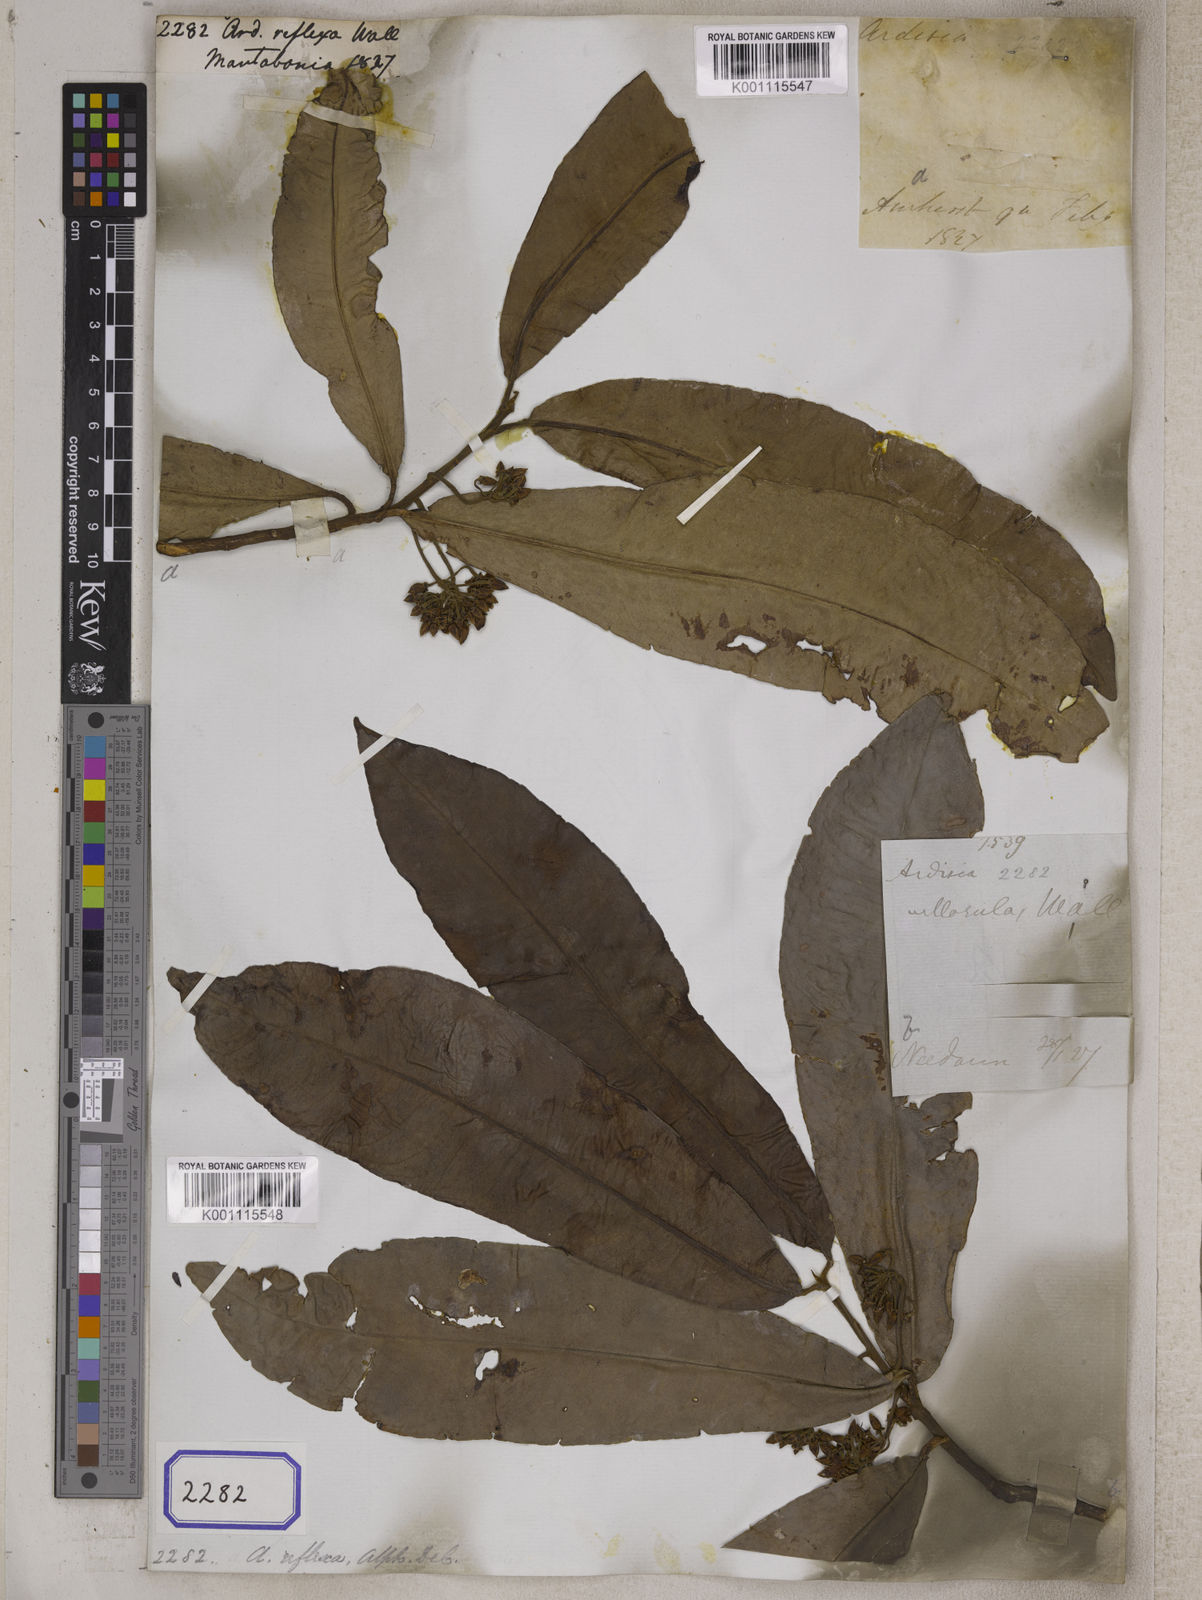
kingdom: Plantae
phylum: Tracheophyta
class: Magnoliopsida
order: Ericales
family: Primulaceae
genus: Ardisia
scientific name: Ardisia
